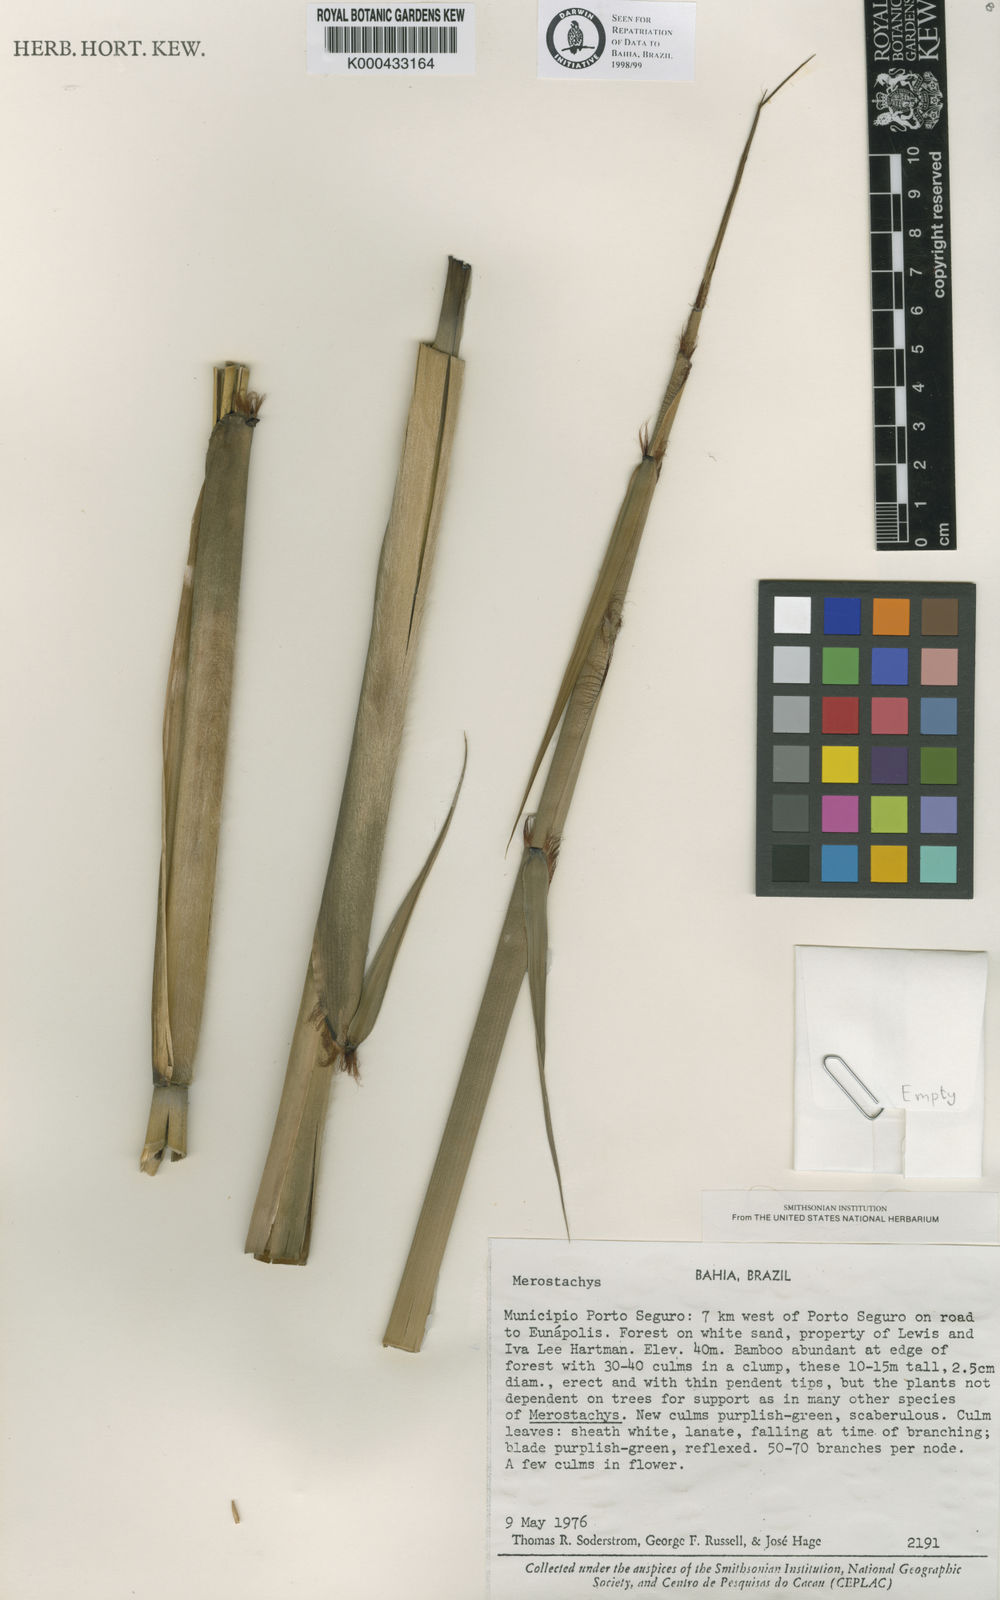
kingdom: Plantae
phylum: Tracheophyta
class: Liliopsida
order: Poales
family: Poaceae
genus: Merostachys
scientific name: Merostachys lanata
